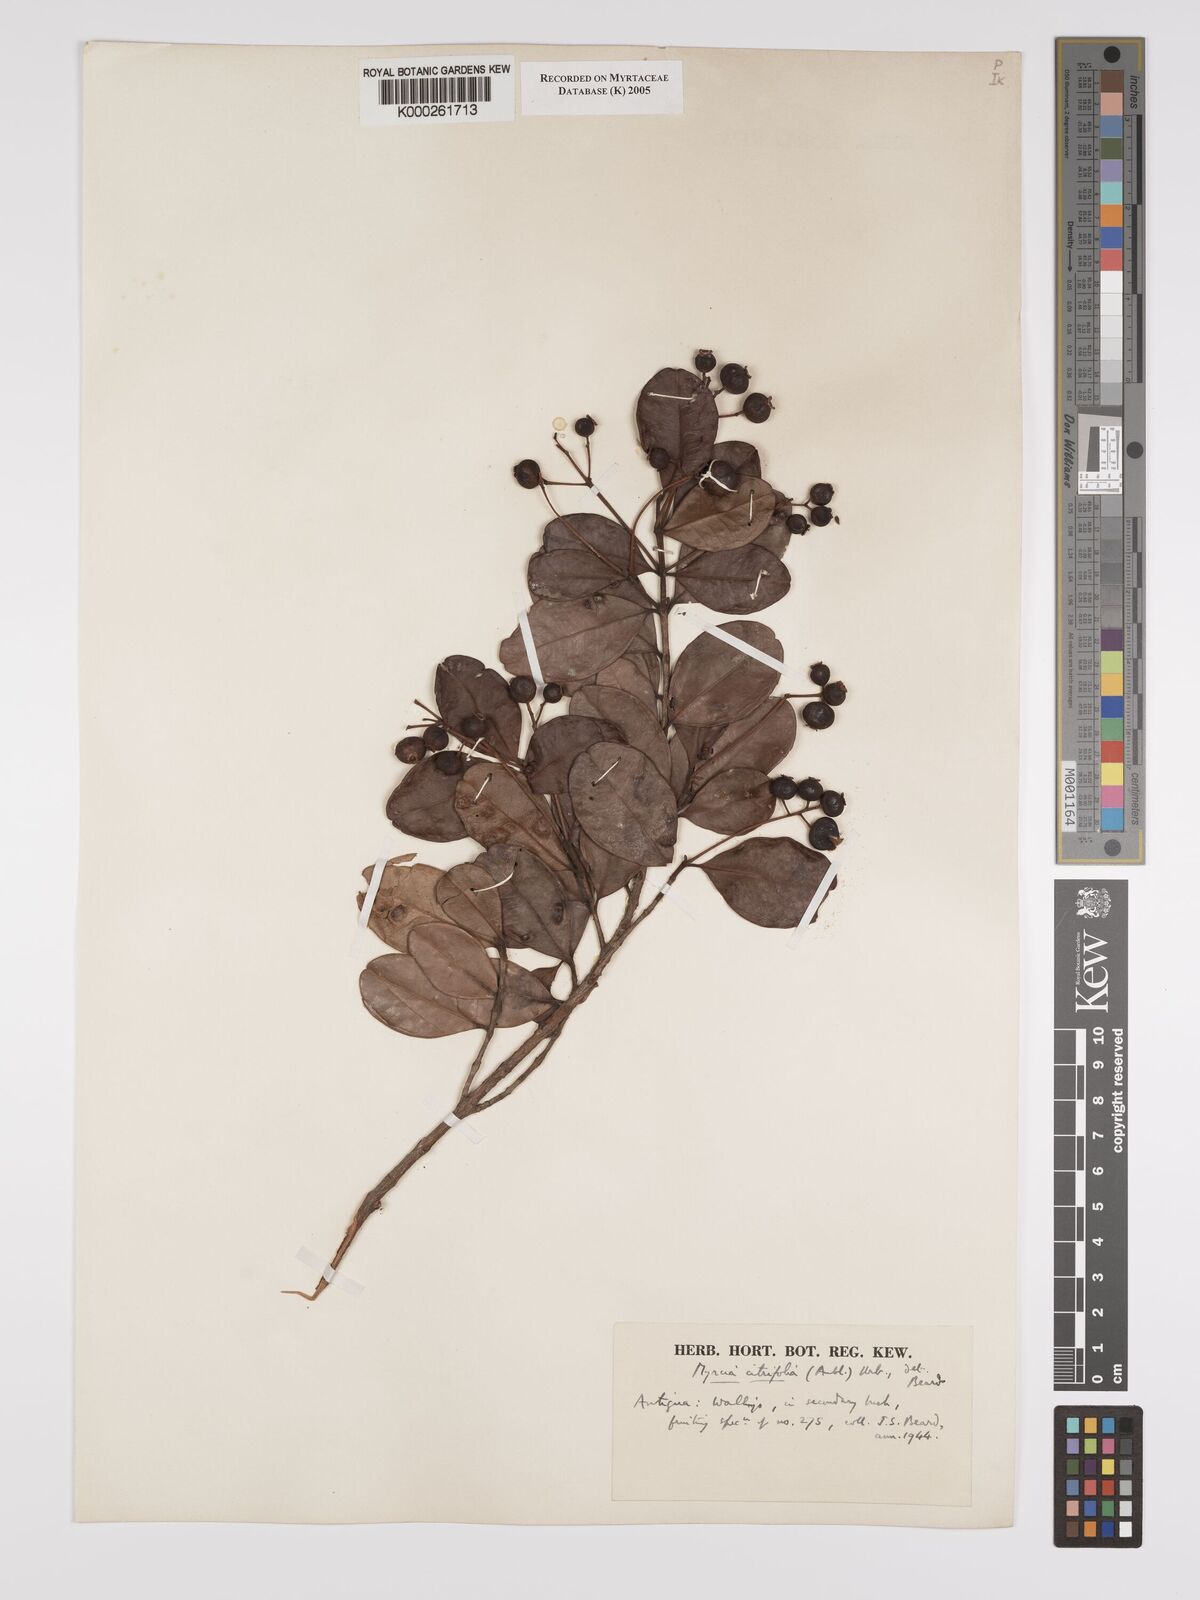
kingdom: Plantae
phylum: Tracheophyta
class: Magnoliopsida
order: Myrtales
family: Myrtaceae
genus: Myrcia
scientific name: Myrcia guianensis
